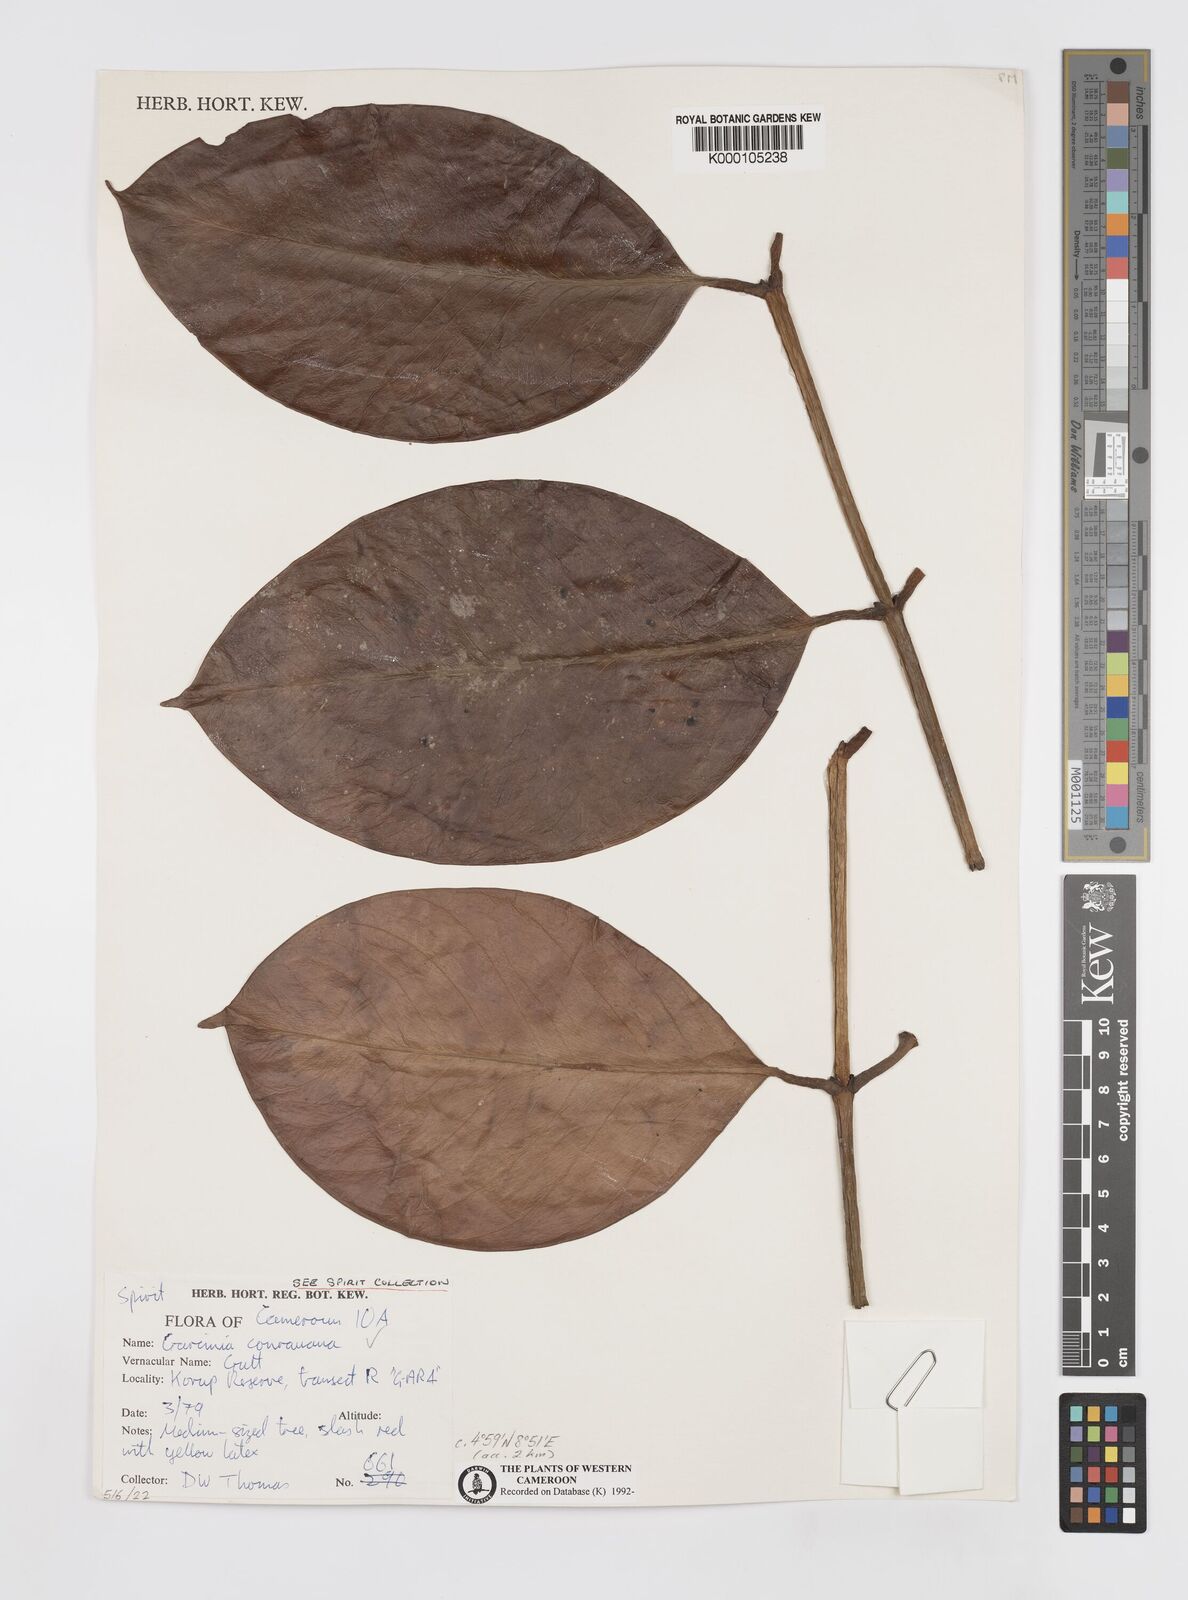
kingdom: Plantae
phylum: Tracheophyta
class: Magnoliopsida
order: Malpighiales
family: Clusiaceae
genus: Garcinia
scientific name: Garcinia conrauana
